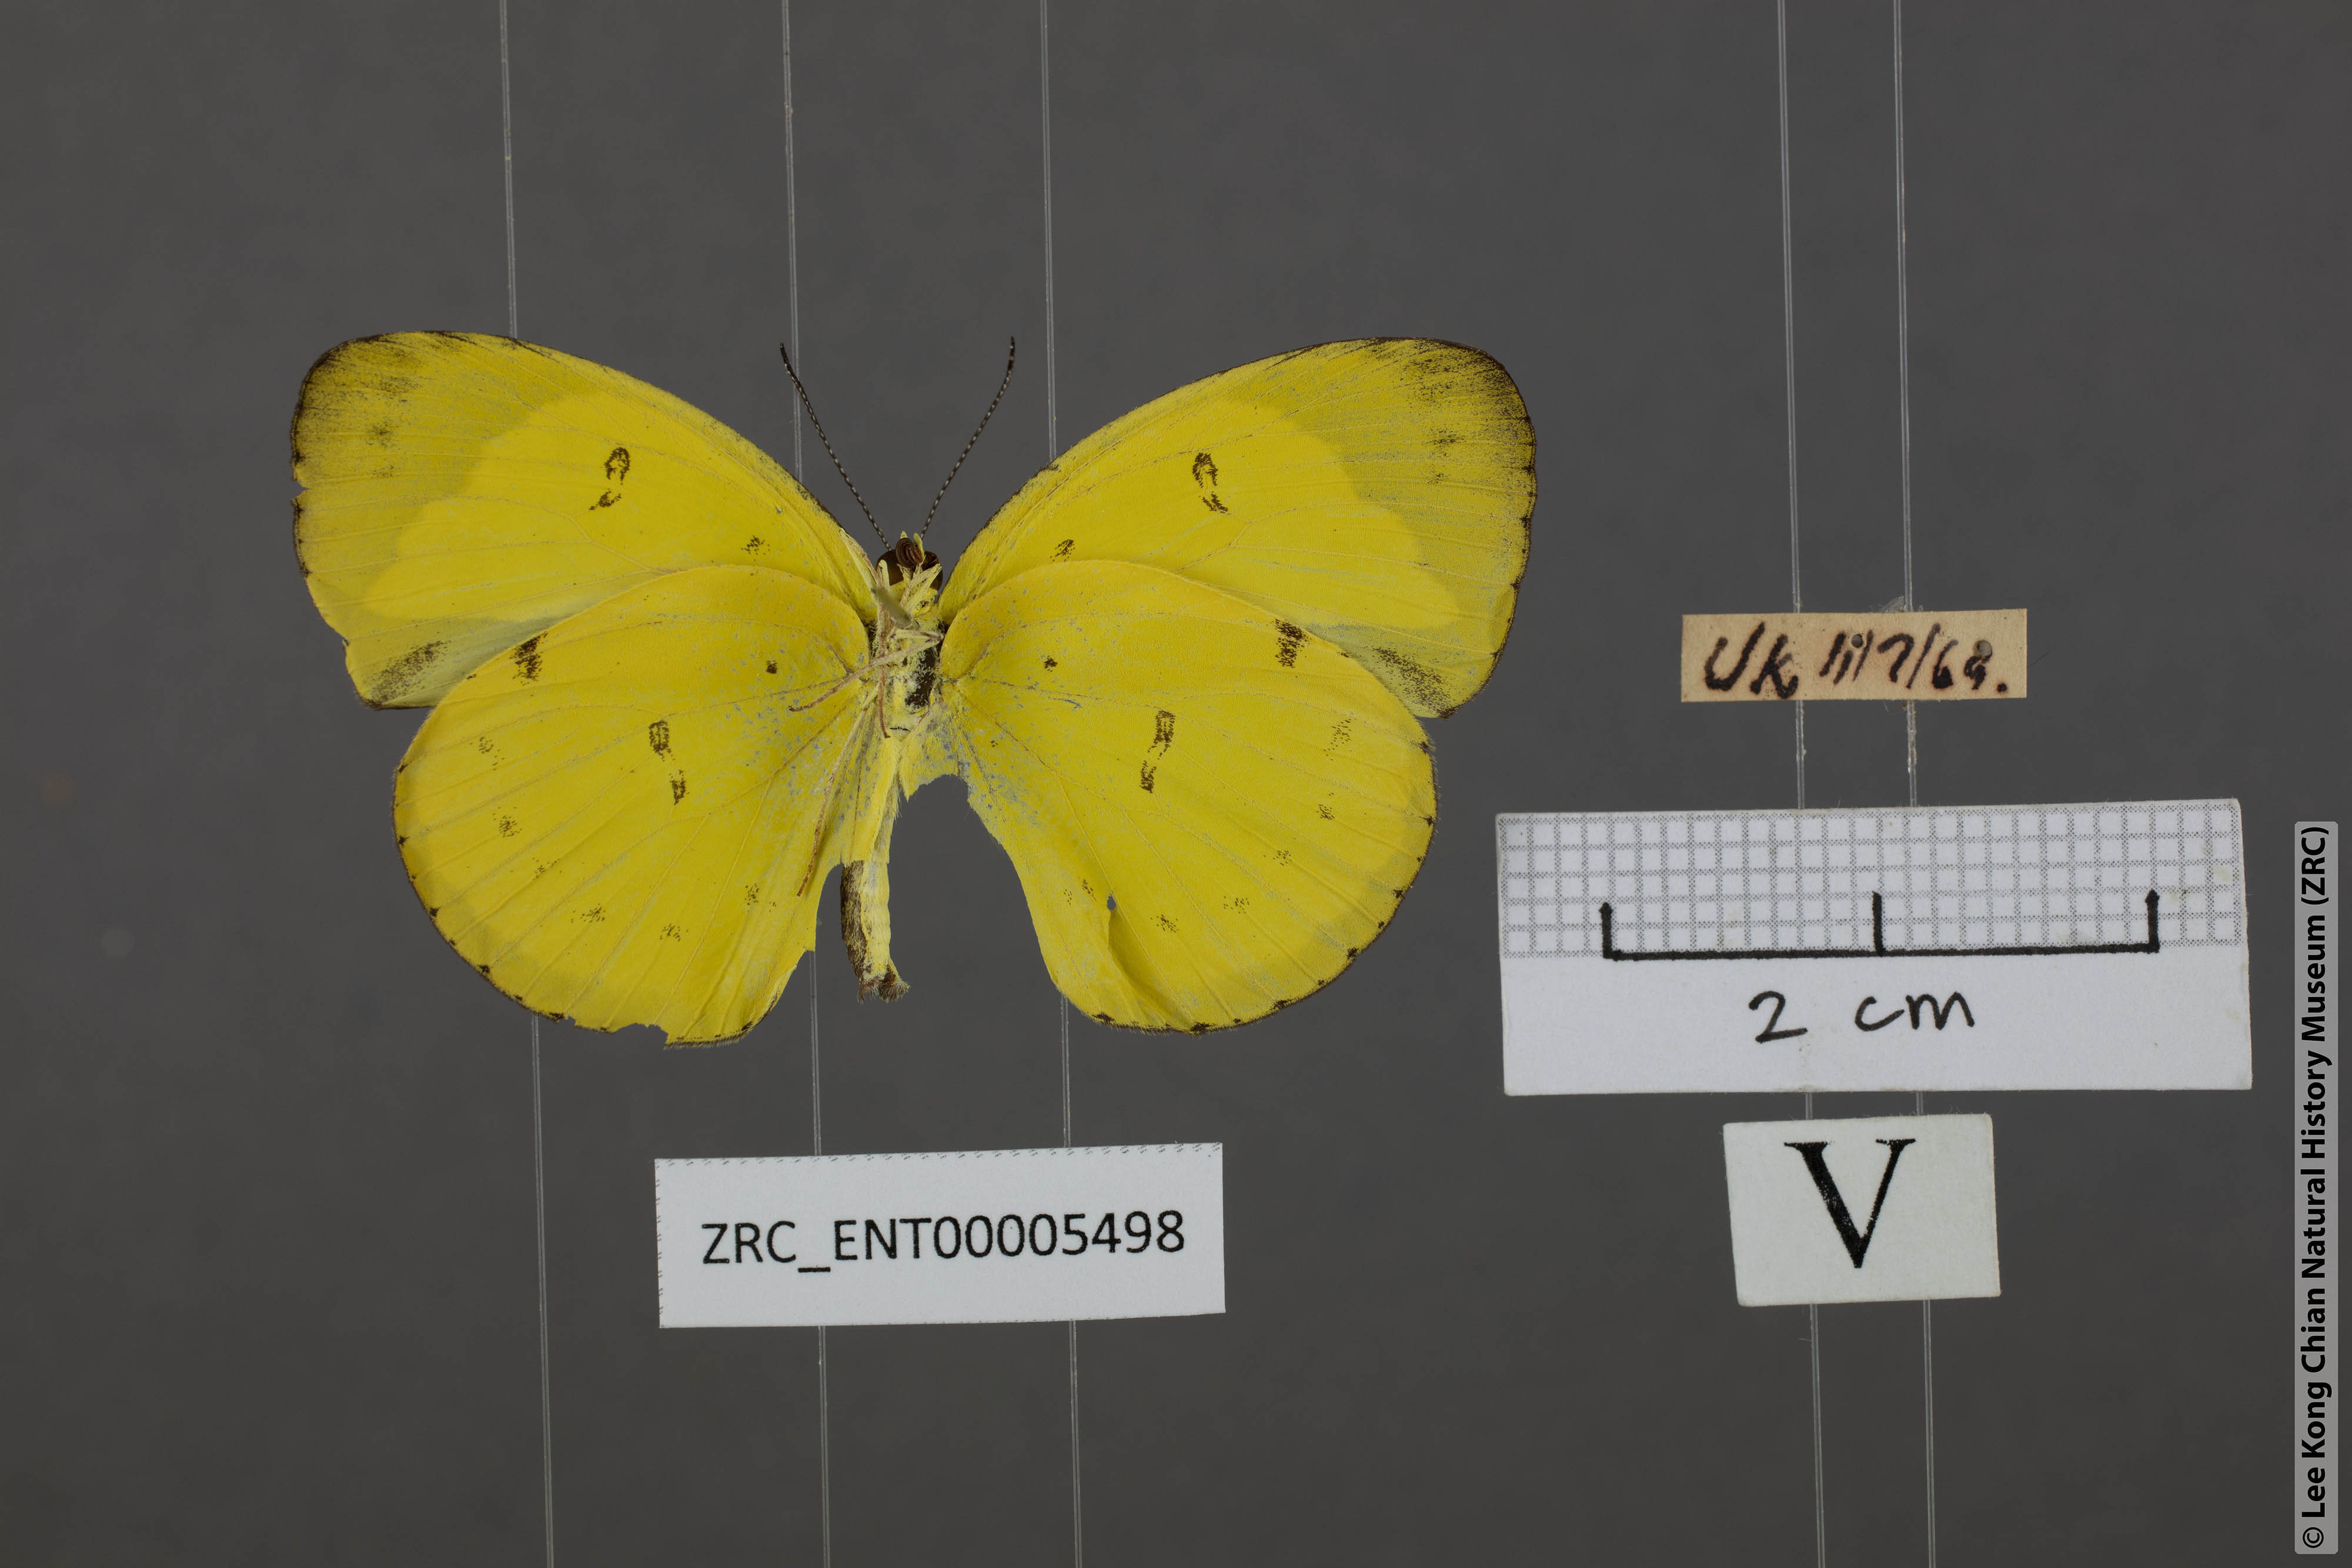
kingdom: Animalia
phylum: Arthropoda
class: Insecta
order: Lepidoptera
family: Pieridae
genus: Eurema
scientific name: Eurema nicevillei
